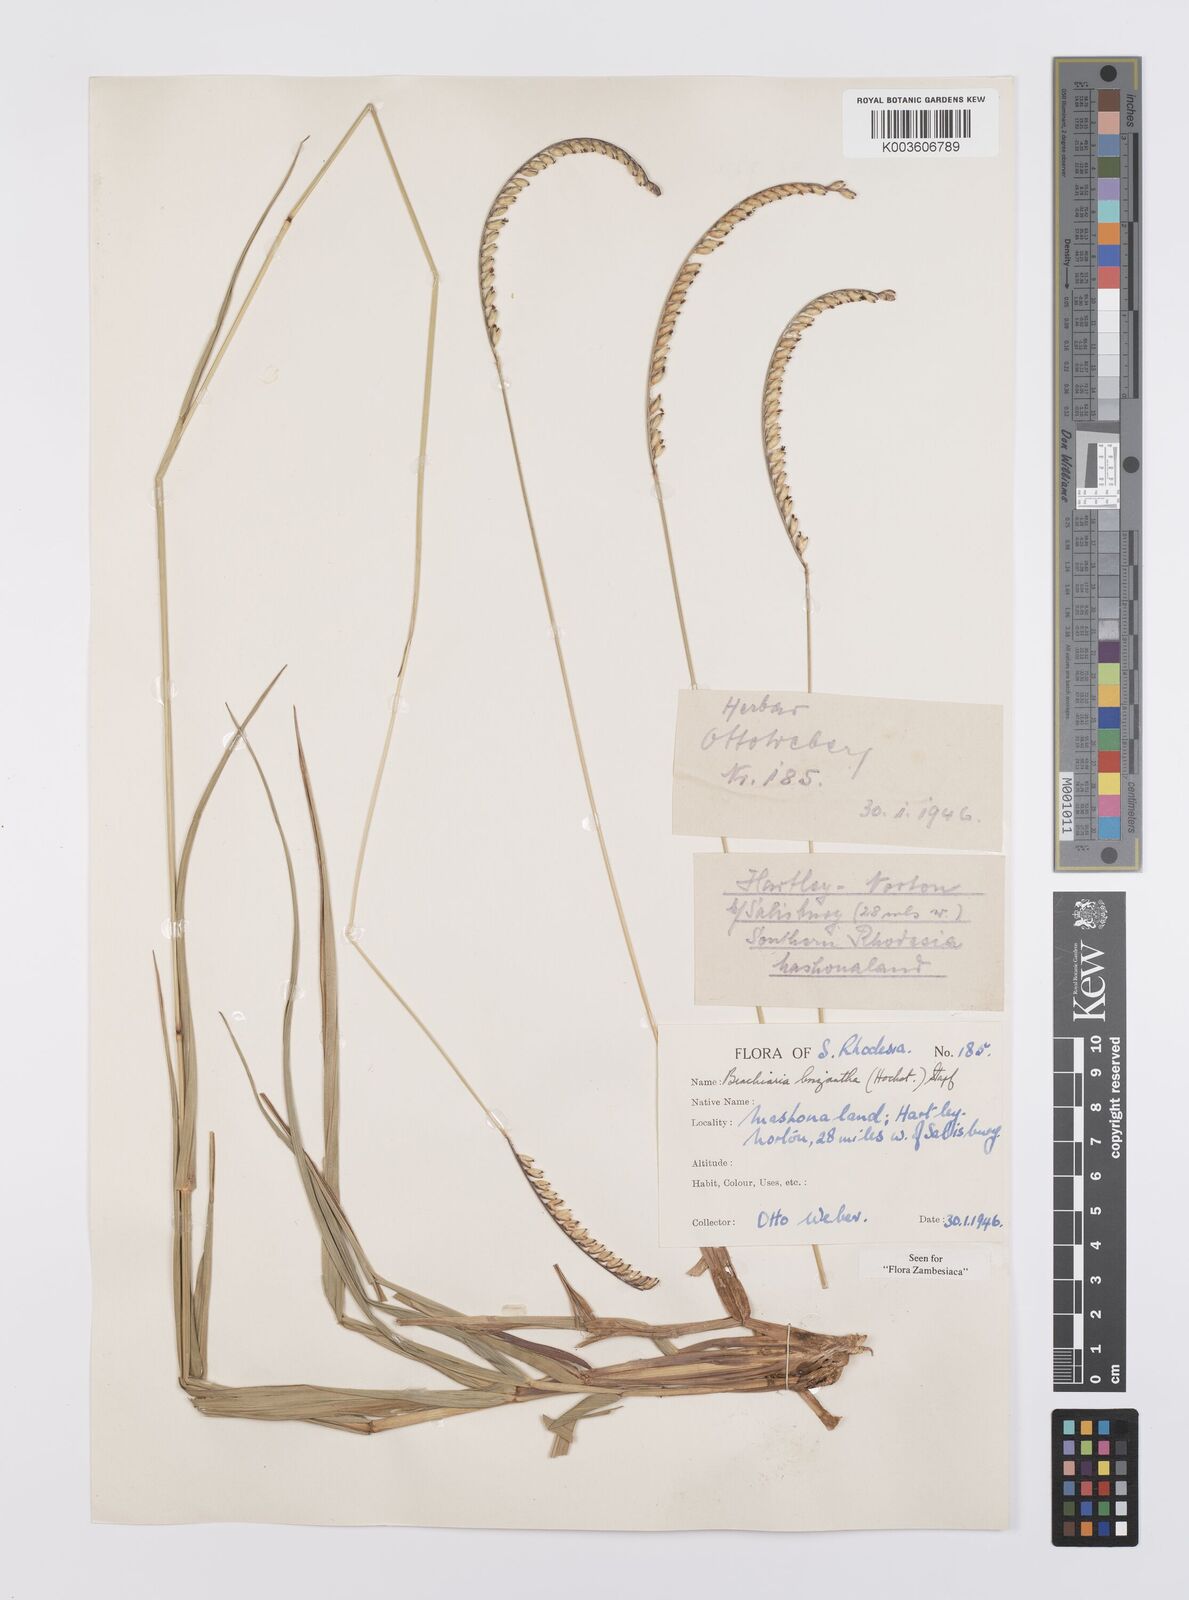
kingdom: Plantae
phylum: Tracheophyta
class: Liliopsida
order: Poales
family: Poaceae
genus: Urochloa
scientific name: Urochloa brizantha
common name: Palisade signalgrass
